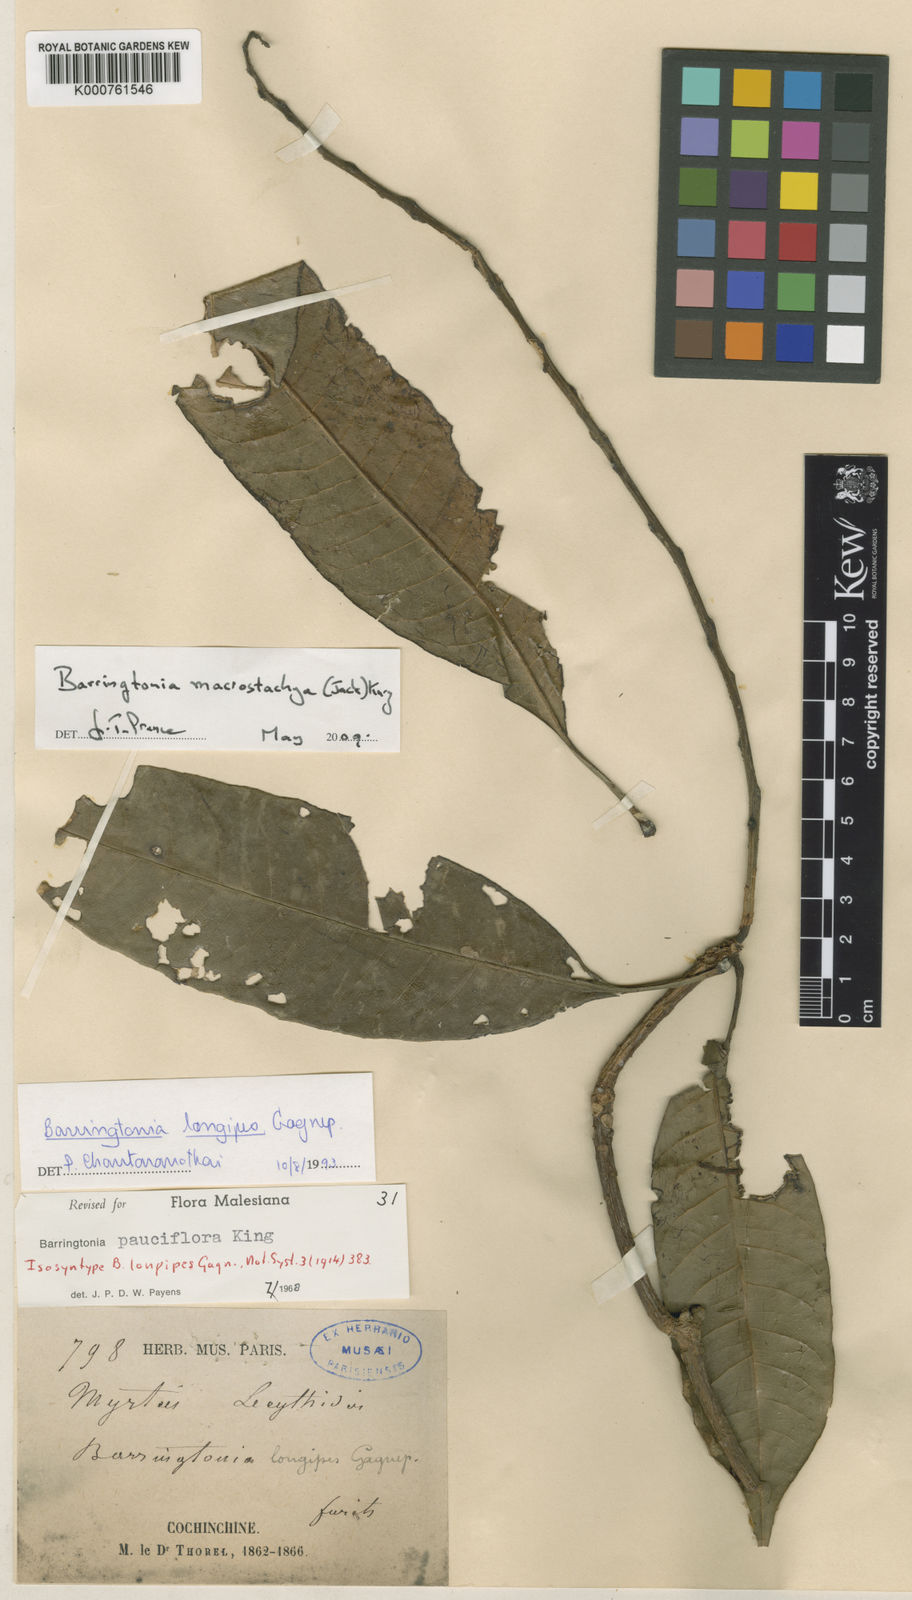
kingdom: Plantae
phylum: Tracheophyta
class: Magnoliopsida
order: Ericales
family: Lecythidaceae
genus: Barringtonia
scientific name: Barringtonia macrostachya
